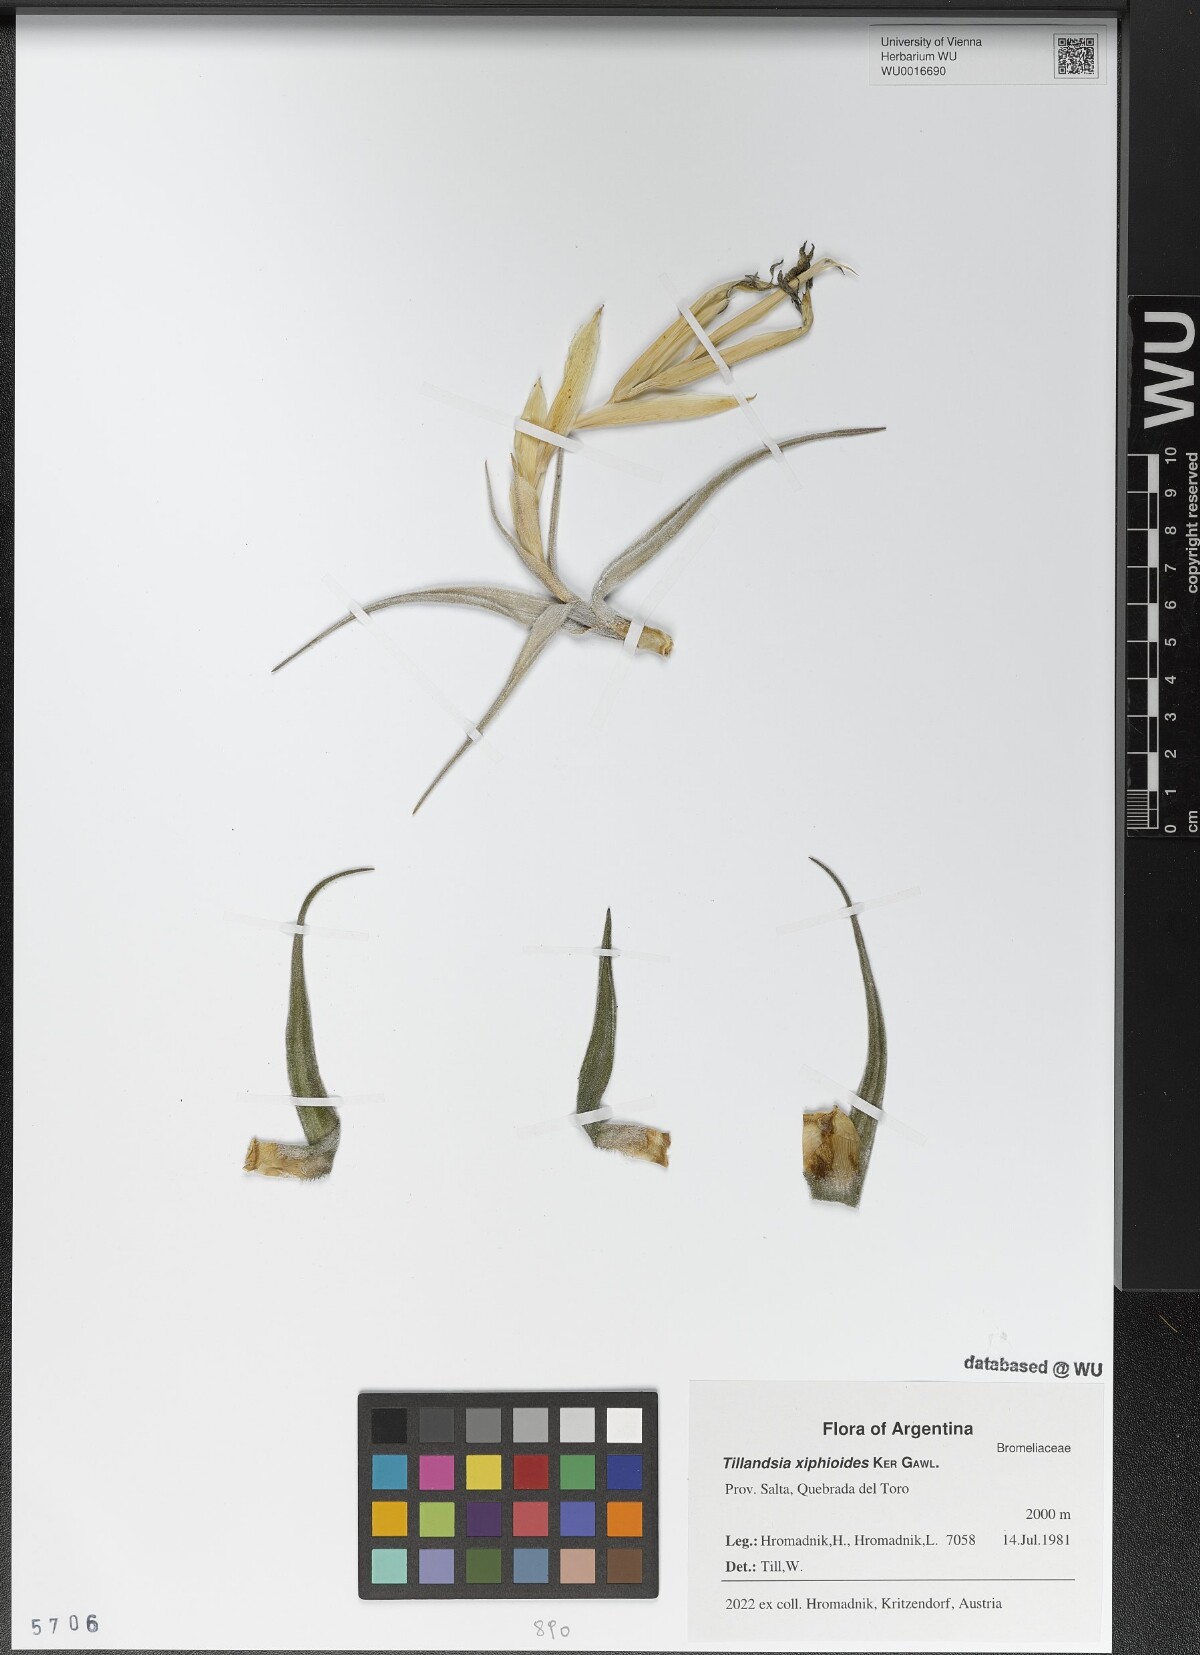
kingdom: Plantae
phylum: Tracheophyta
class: Liliopsida
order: Poales
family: Bromeliaceae
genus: Tillandsia
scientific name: Tillandsia xiphioides
